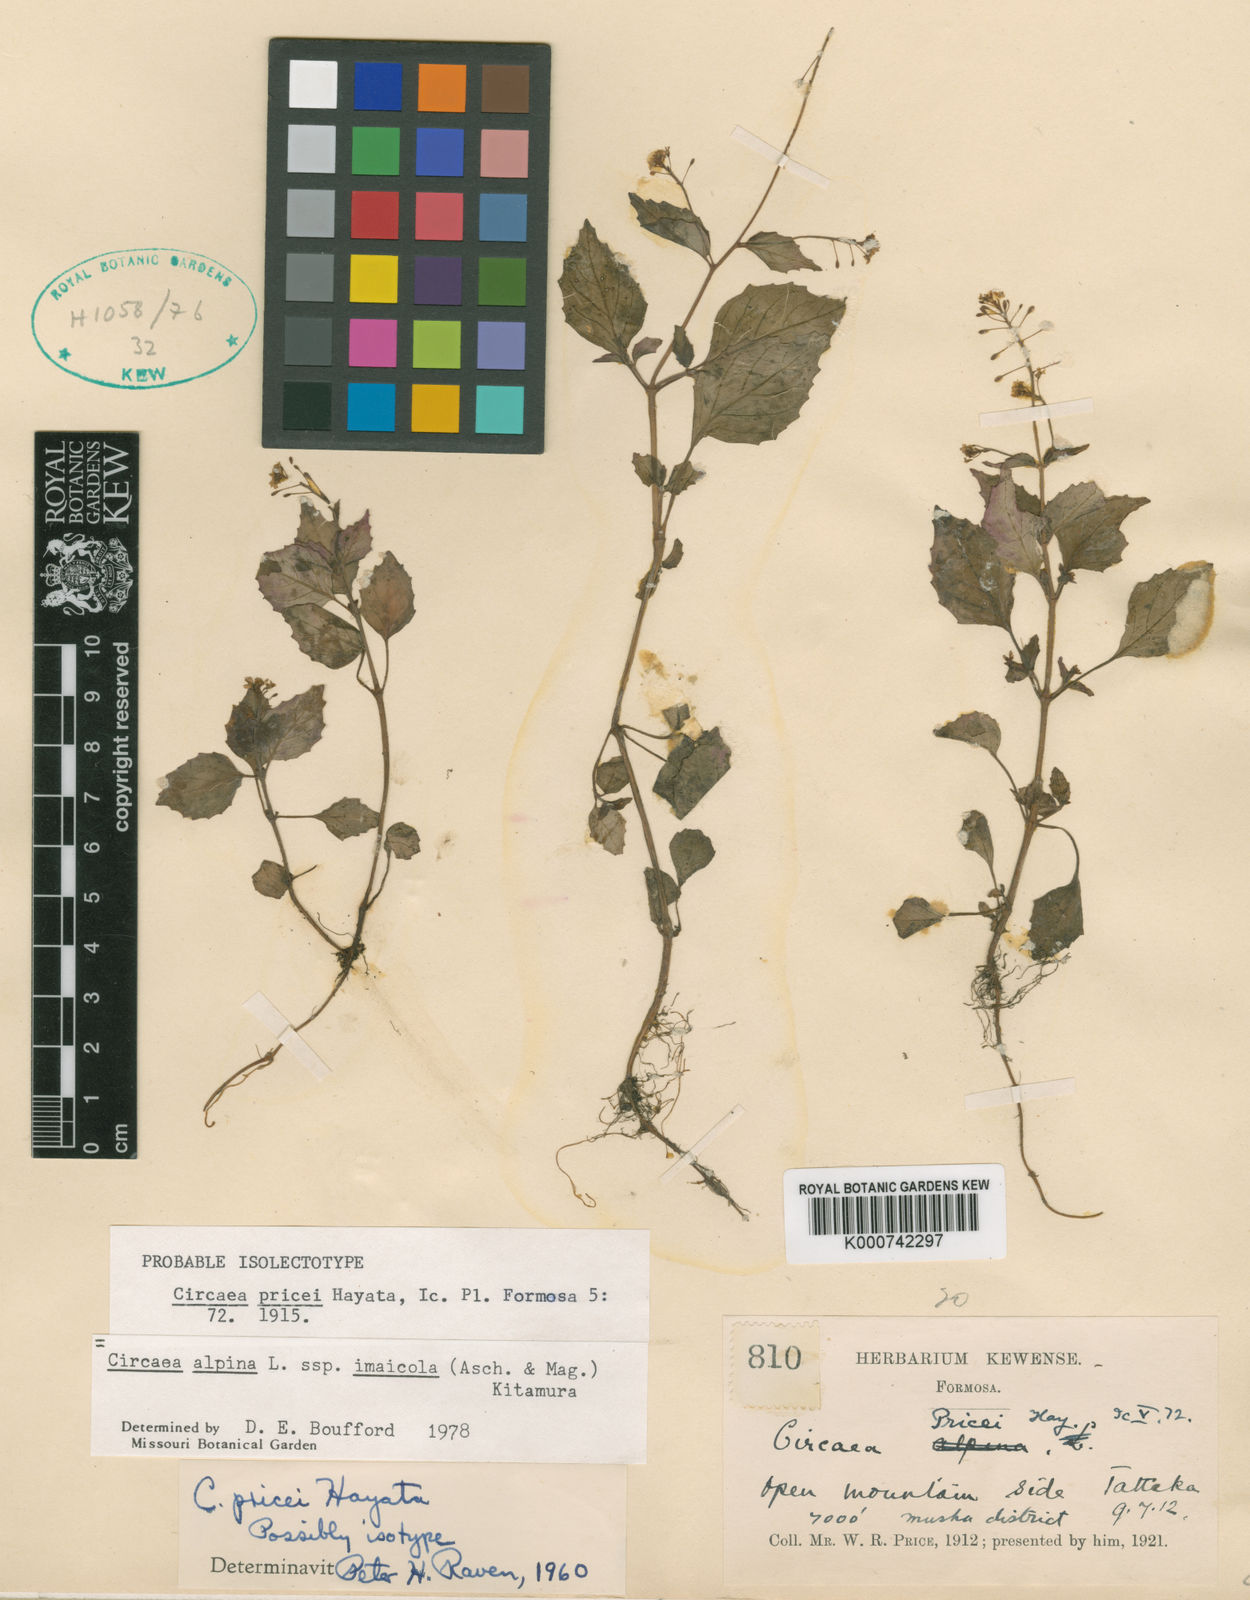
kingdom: Plantae
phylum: Tracheophyta
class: Magnoliopsida
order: Myrtales
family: Onagraceae
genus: Circaea
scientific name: Circaea alpina
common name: Alpine enchanter's-nightshade
